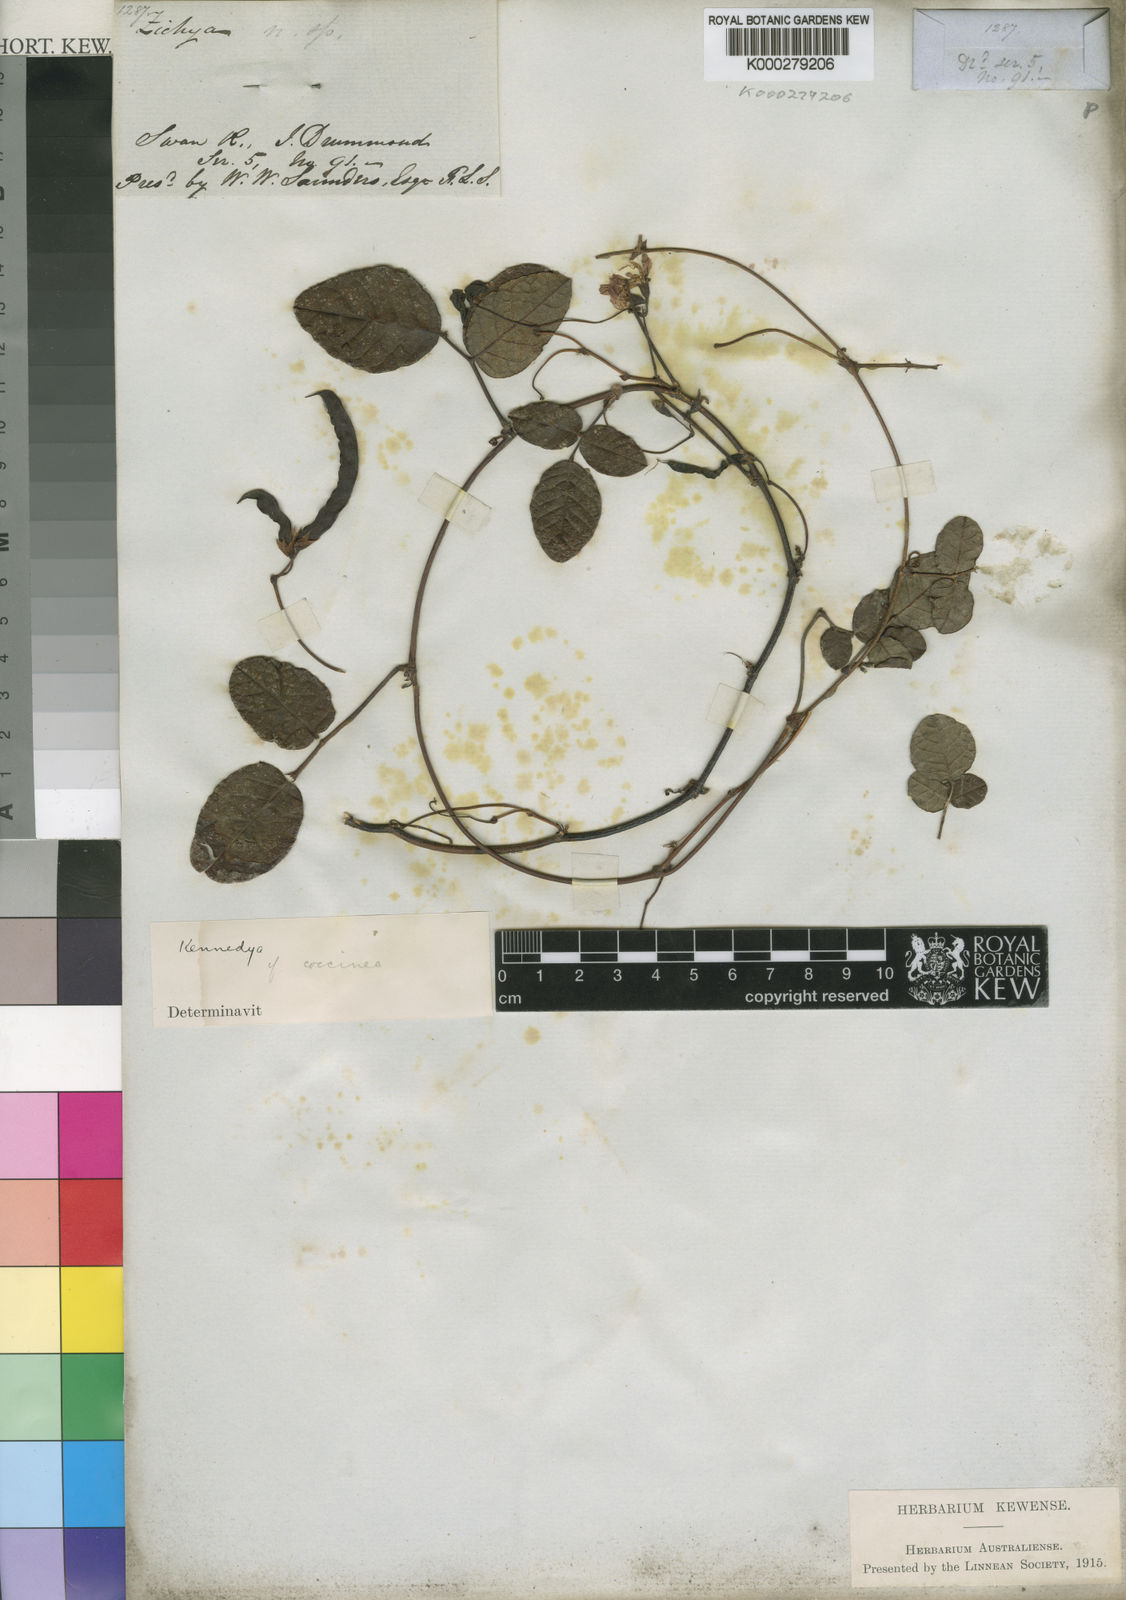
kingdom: Plantae
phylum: Tracheophyta
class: Magnoliopsida
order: Fabales
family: Fabaceae
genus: Kennedia
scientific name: Kennedia coccinea
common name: Coralvine
